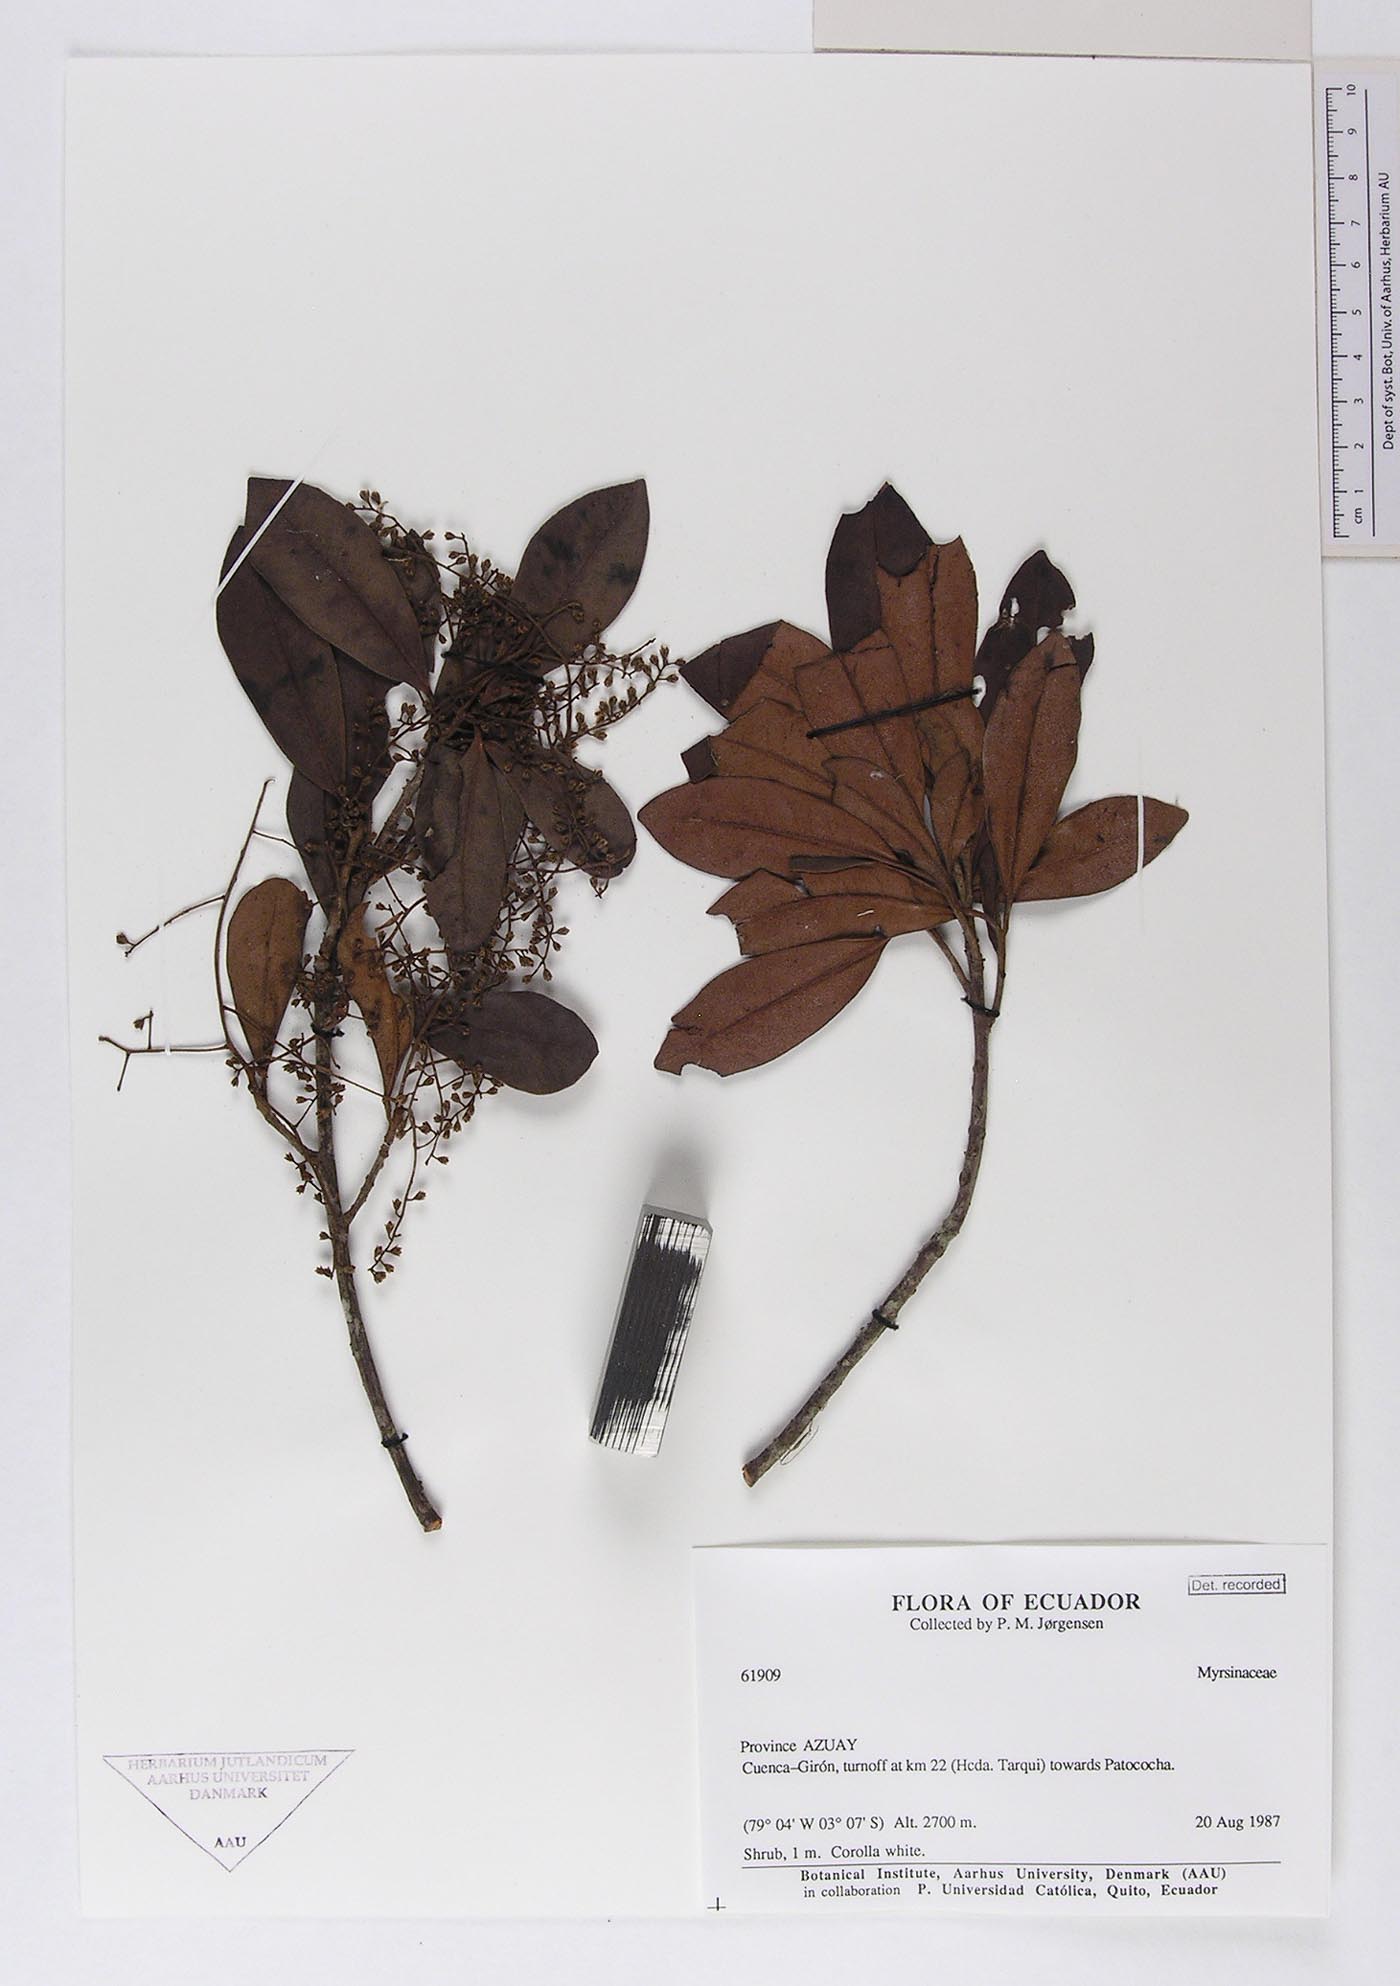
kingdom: Plantae
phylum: Tracheophyta
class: Magnoliopsida
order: Ericales
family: Primulaceae
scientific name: Primulaceae
